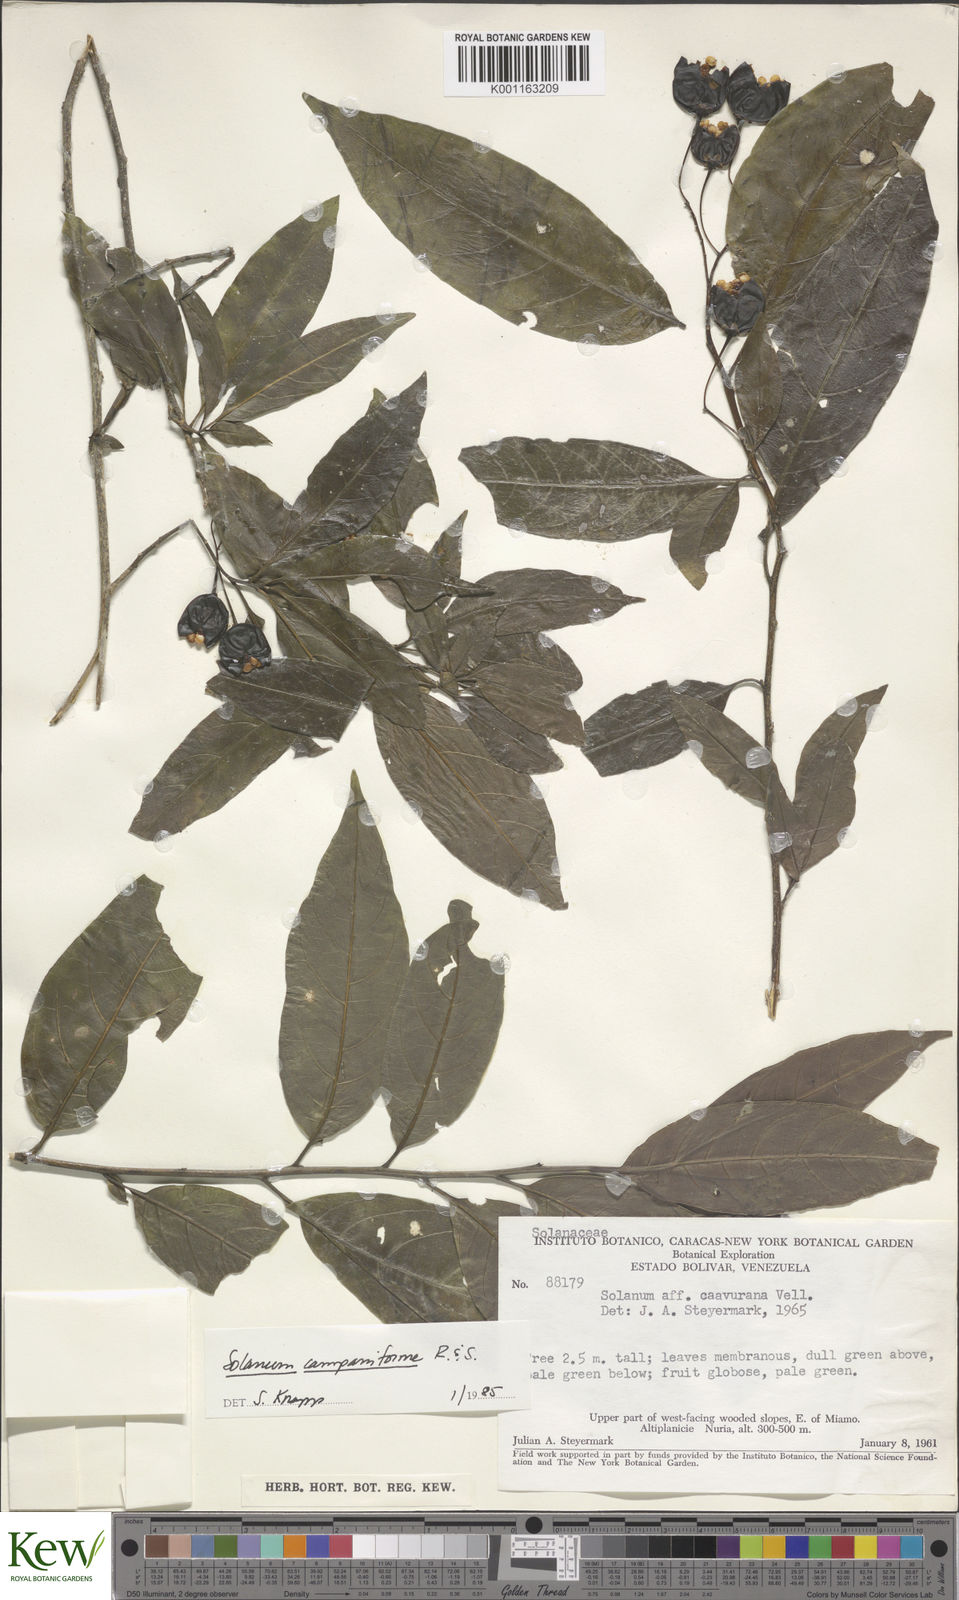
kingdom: Plantae
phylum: Tracheophyta
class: Magnoliopsida
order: Solanales
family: Solanaceae
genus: Solanum
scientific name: Solanum campaniforme
